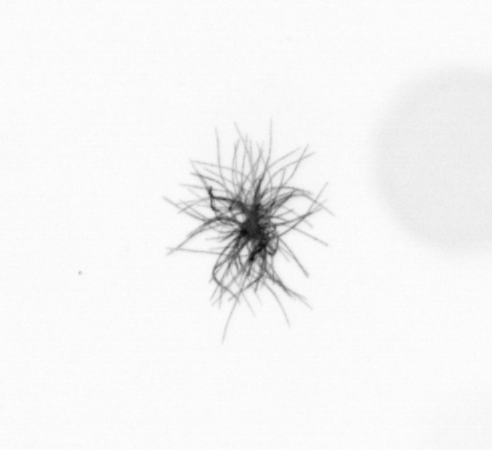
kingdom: Bacteria
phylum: Cyanobacteria
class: Cyanobacteriia
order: Cyanobacteriales
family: Microcoleaceae
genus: Trichodesmium
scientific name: Trichodesmium
